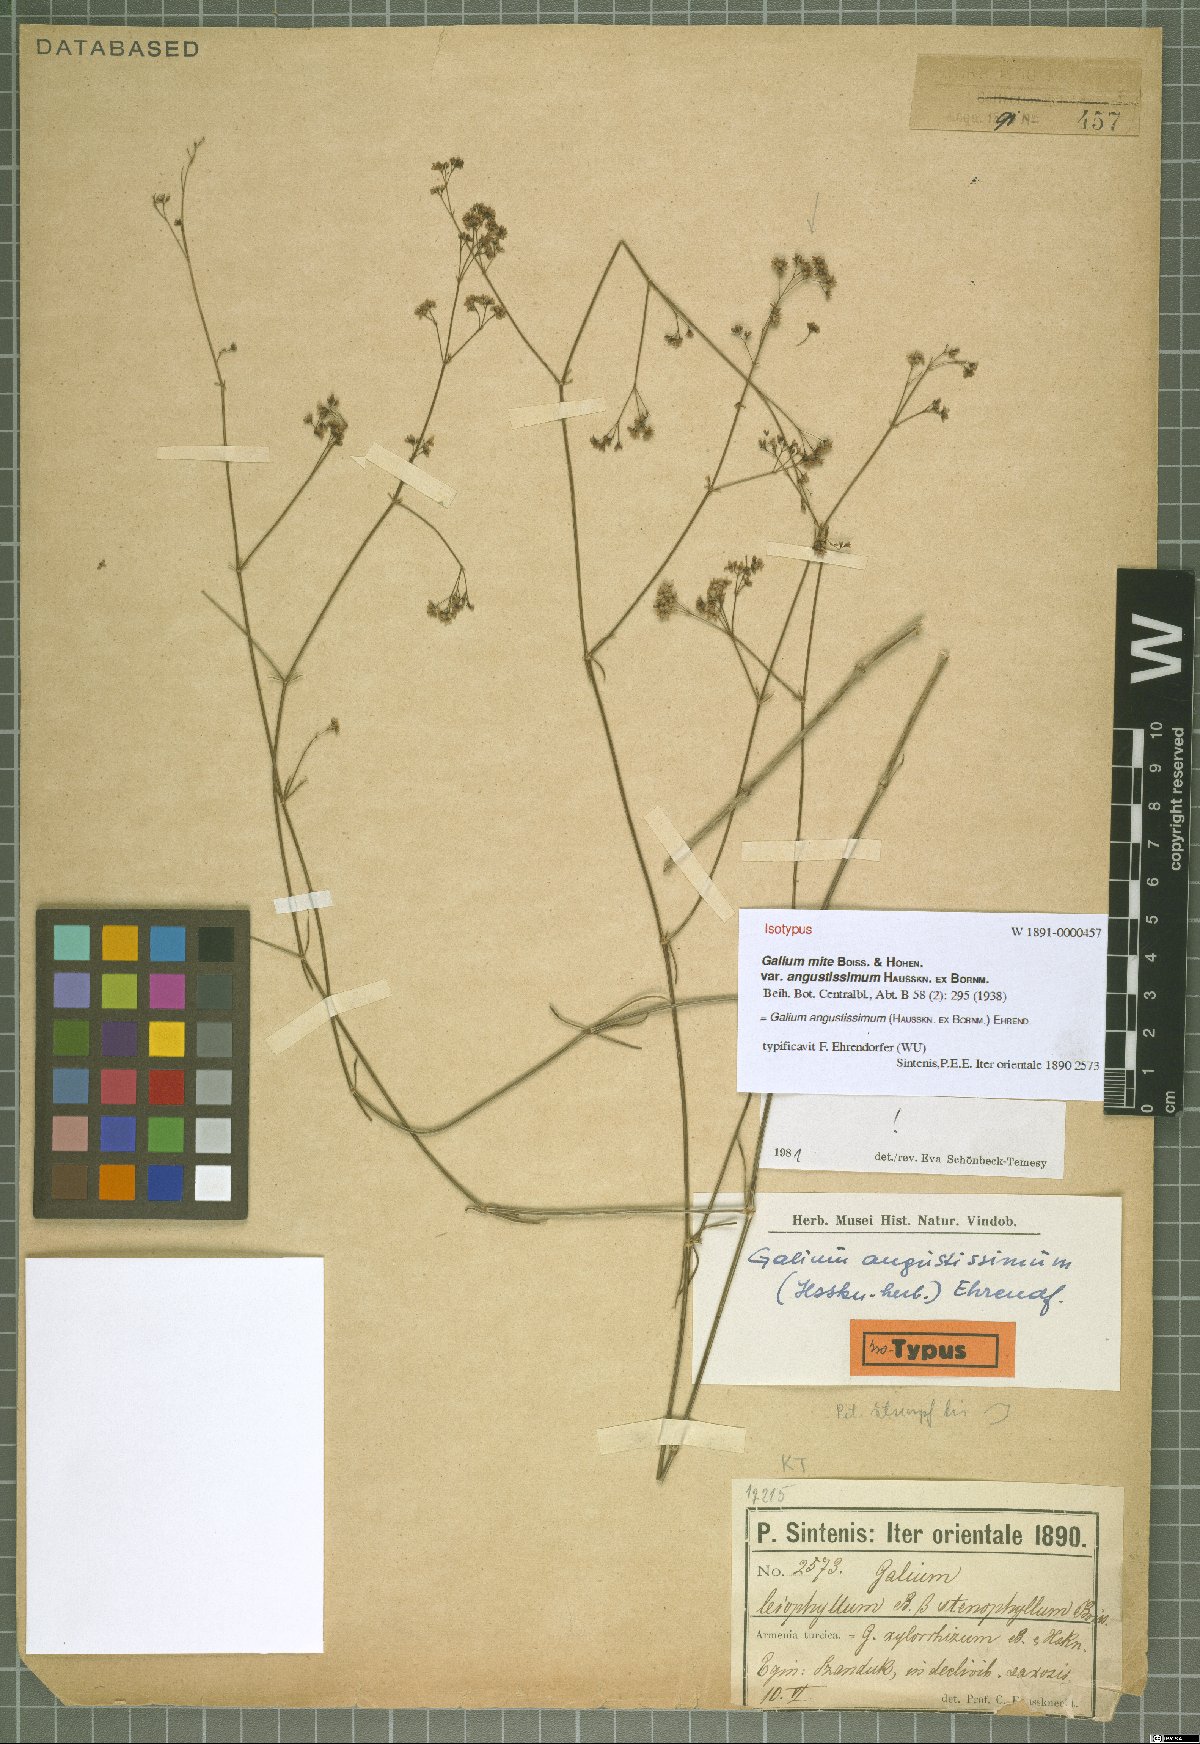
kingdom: Plantae
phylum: Tracheophyta
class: Magnoliopsida
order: Gentianales
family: Rubiaceae
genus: Galium
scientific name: Galium angustissimum
